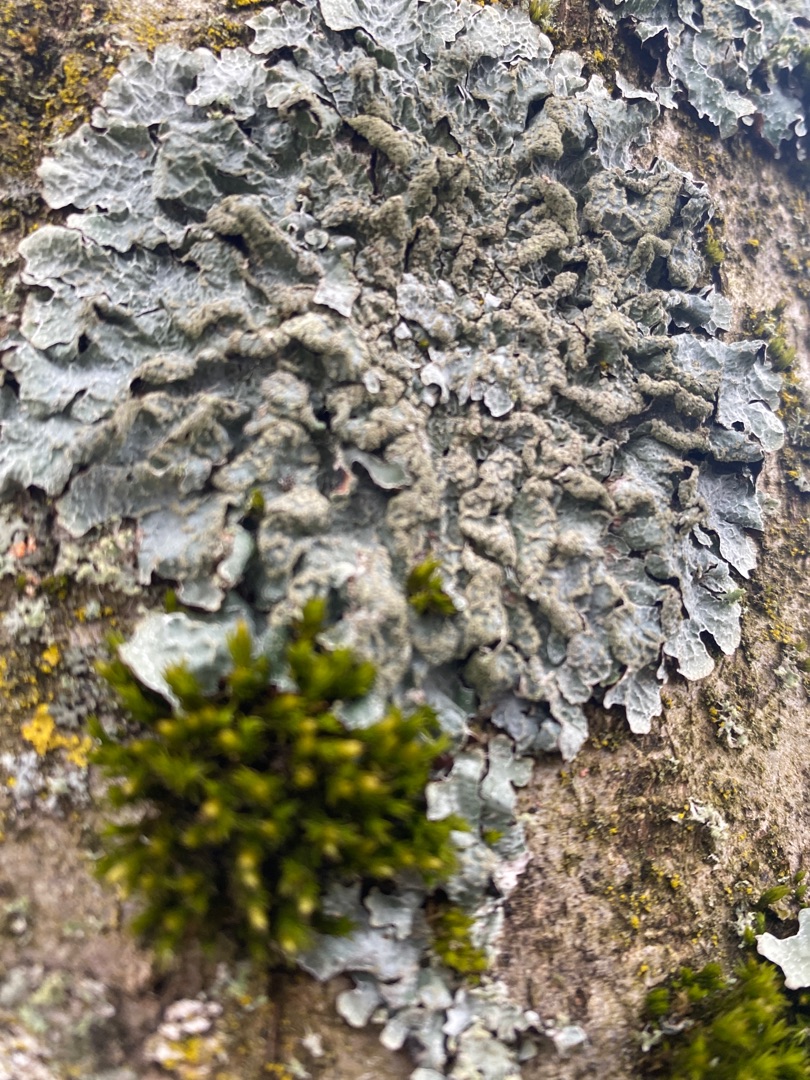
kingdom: Fungi
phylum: Ascomycota
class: Lecanoromycetes
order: Lecanorales
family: Parmeliaceae
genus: Parmelia
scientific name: Parmelia sulcata
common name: Rynket skållav
